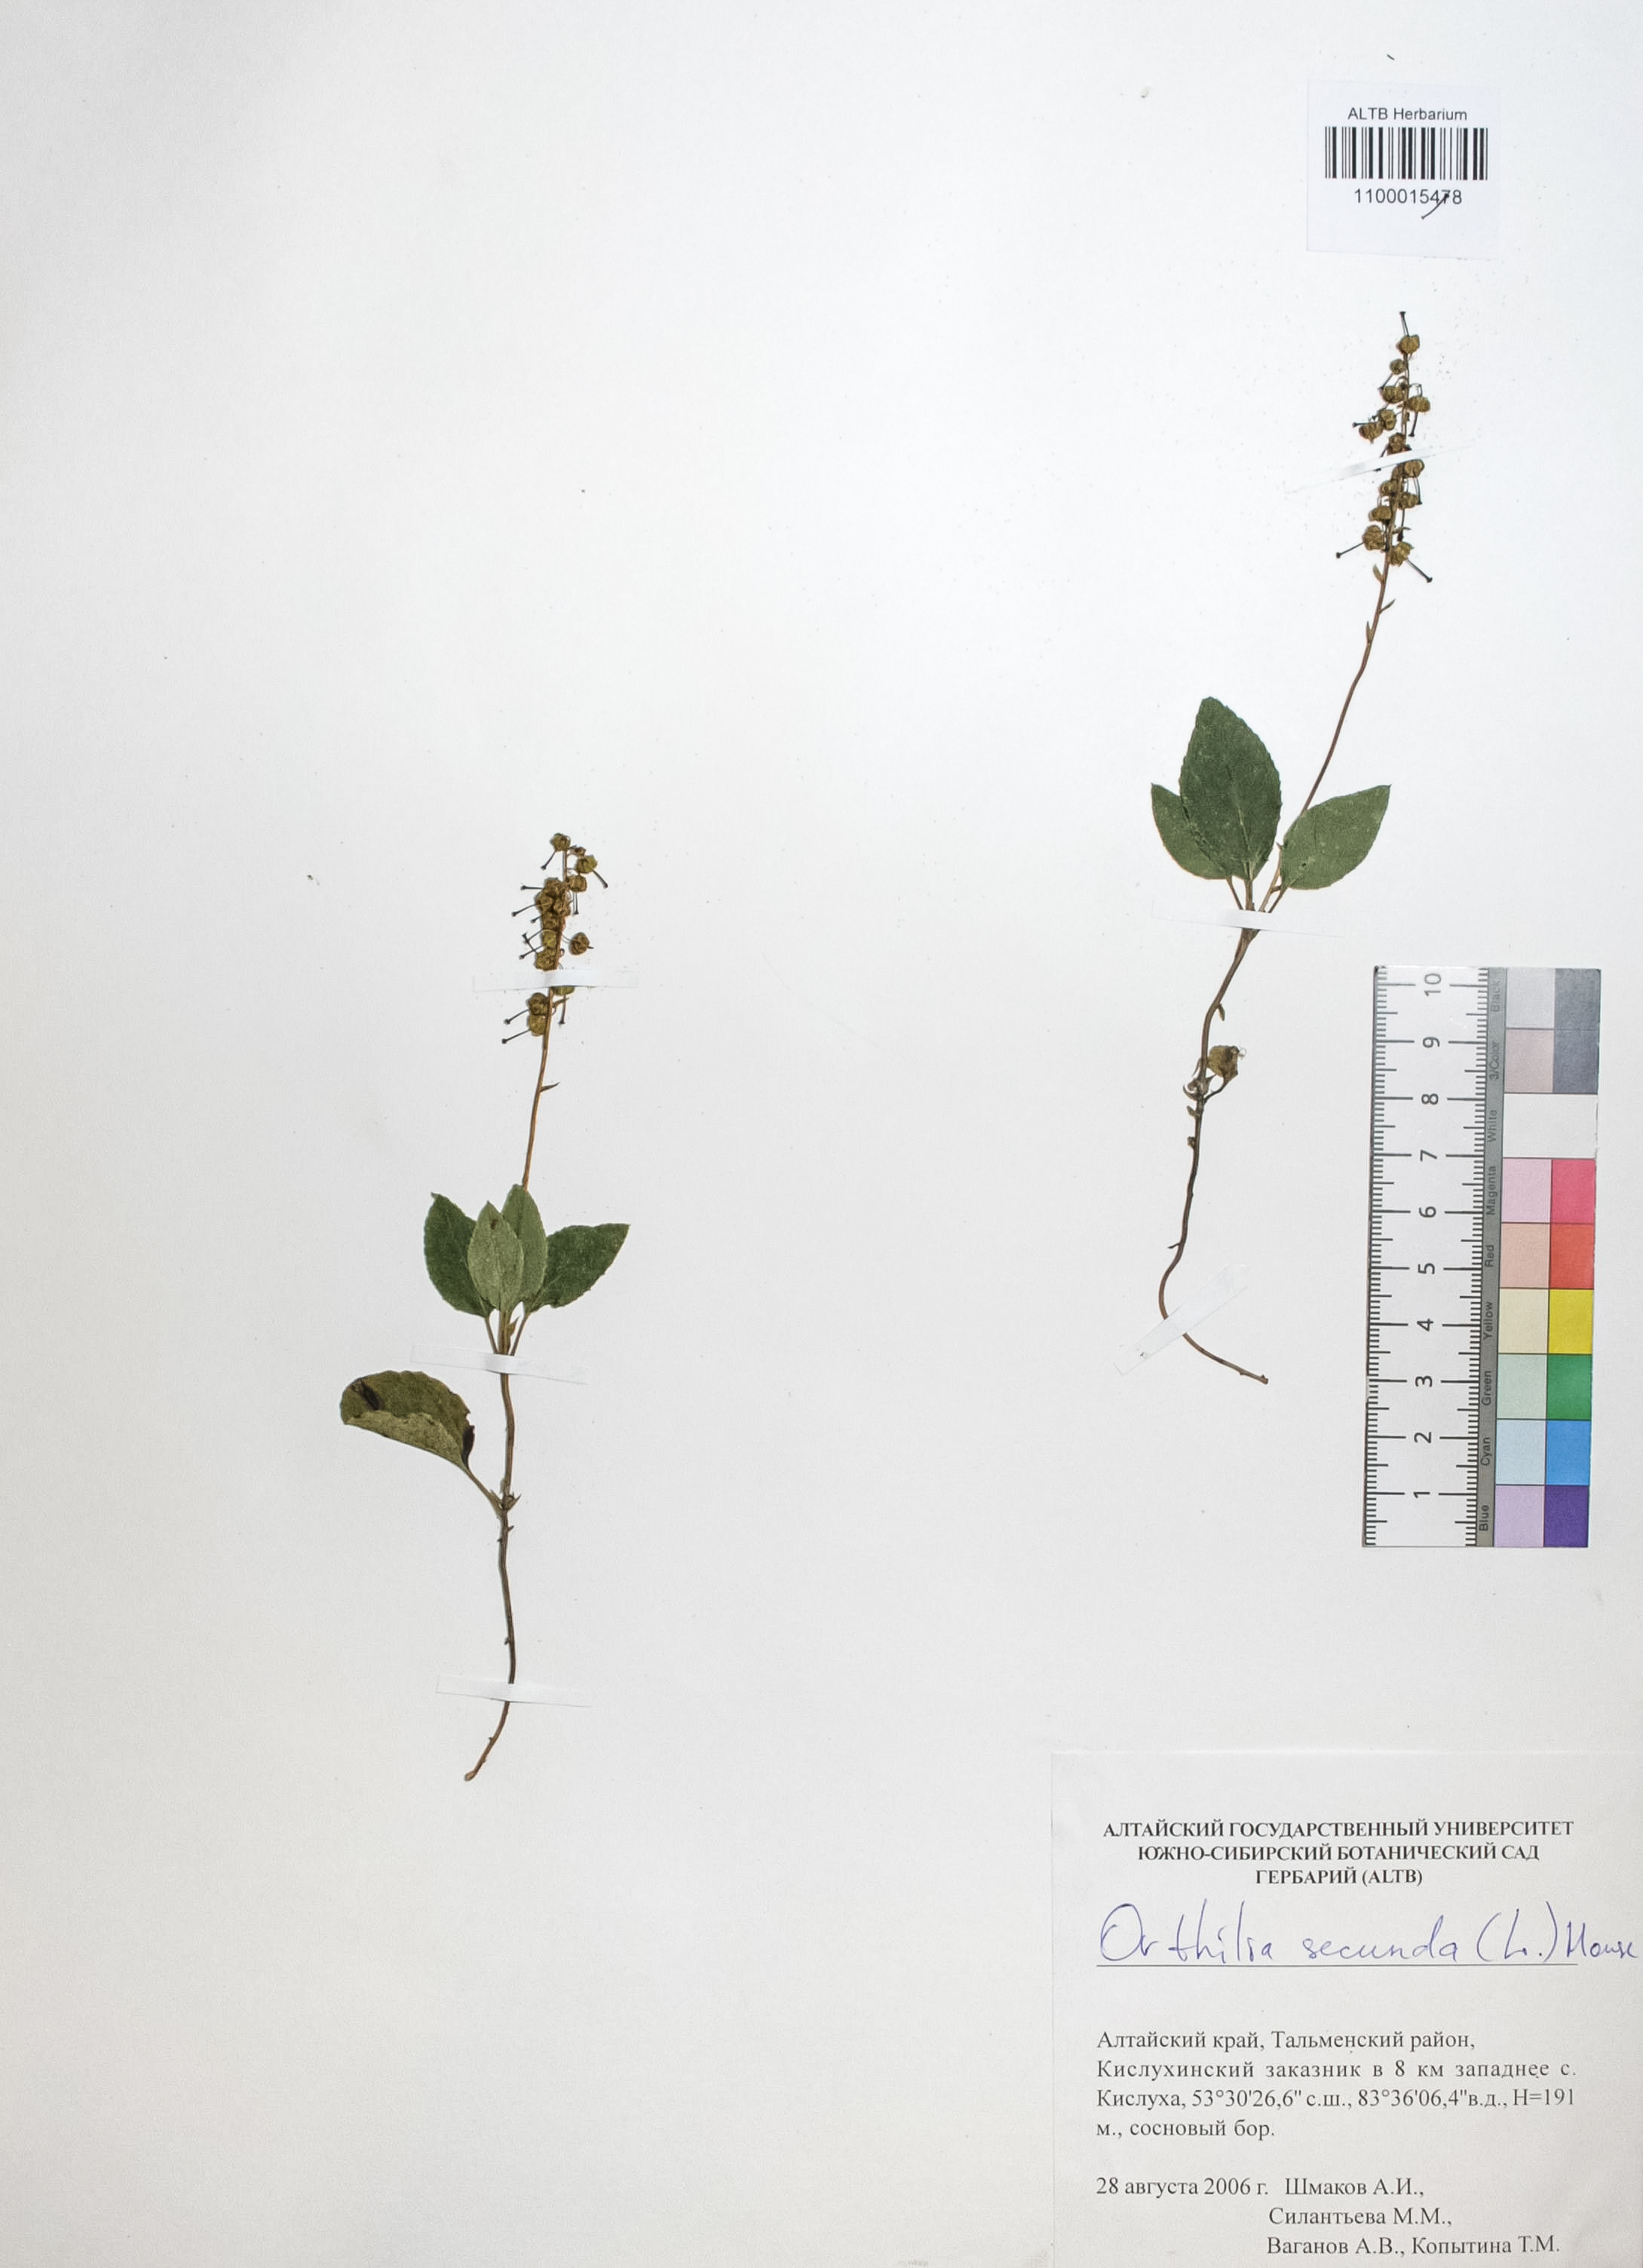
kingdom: Plantae
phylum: Tracheophyta
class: Magnoliopsida
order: Ericales
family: Ericaceae
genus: Orthilia
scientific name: Orthilia secunda
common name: One-sided orthilia
